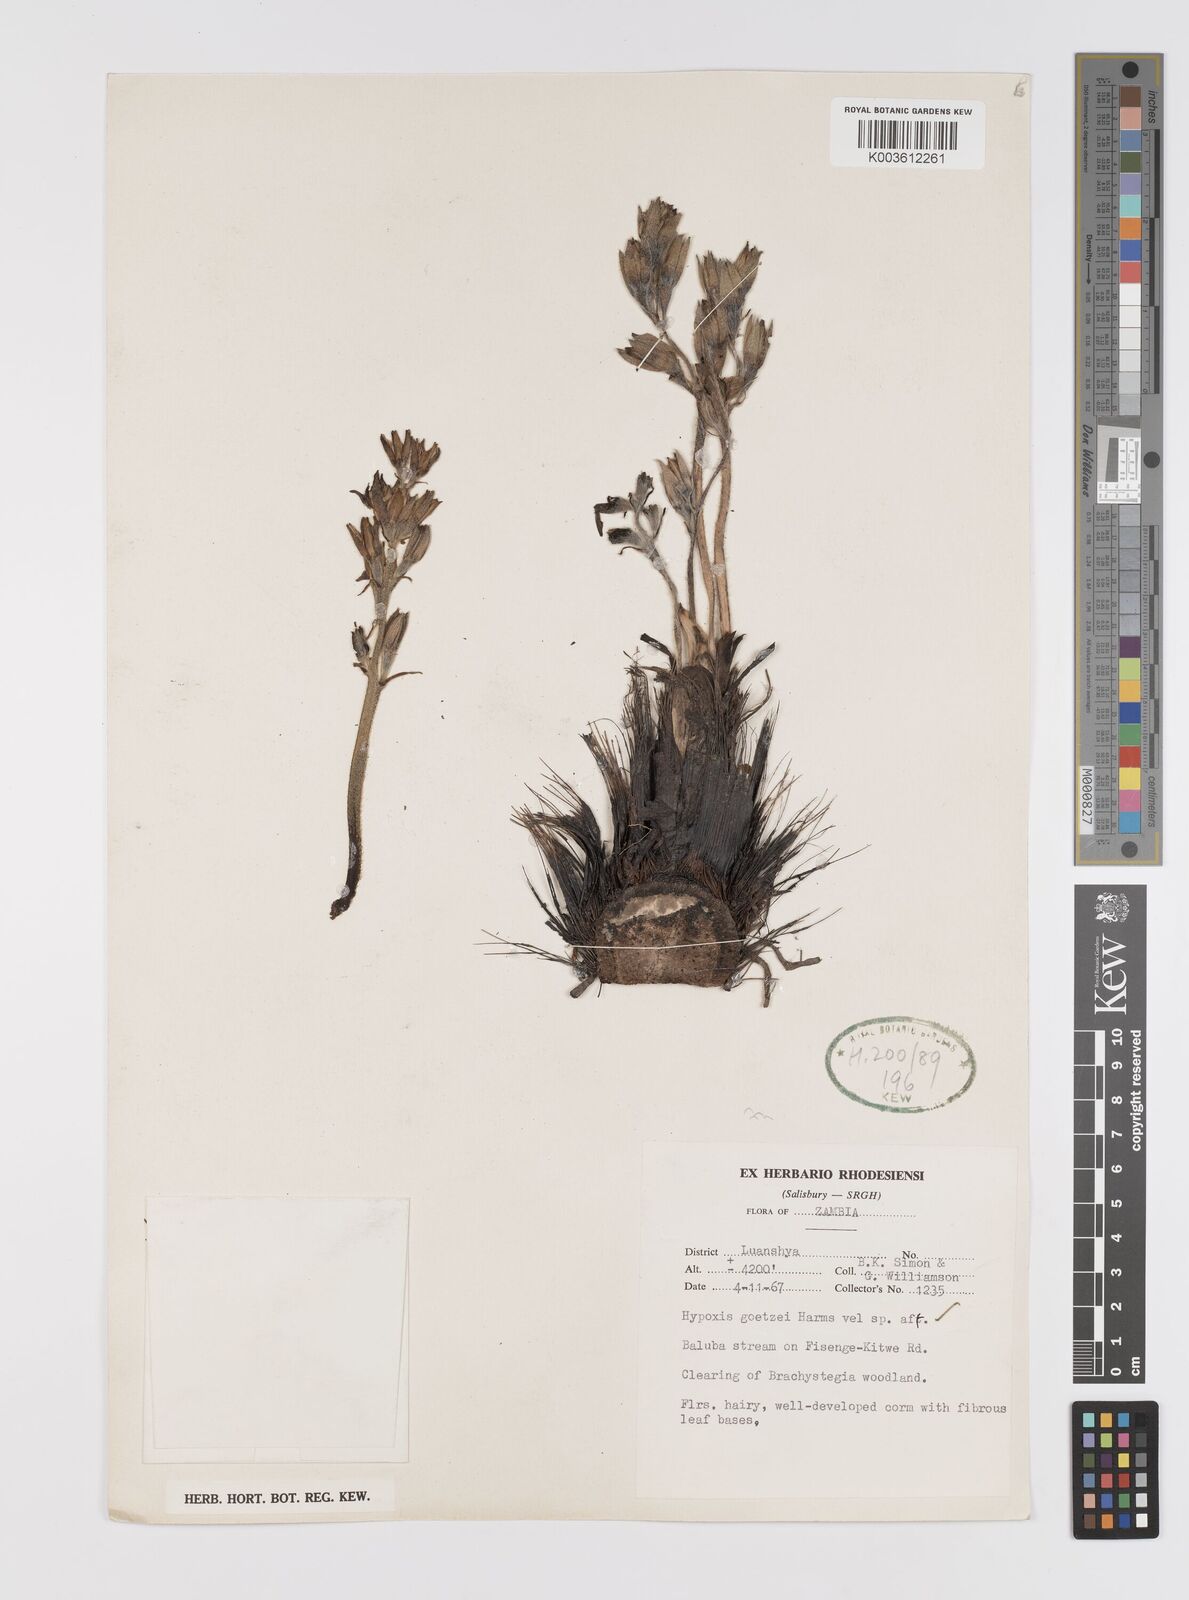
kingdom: Plantae
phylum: Tracheophyta
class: Liliopsida
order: Asparagales
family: Hypoxidaceae
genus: Hypoxis
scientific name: Hypoxis goetzei
